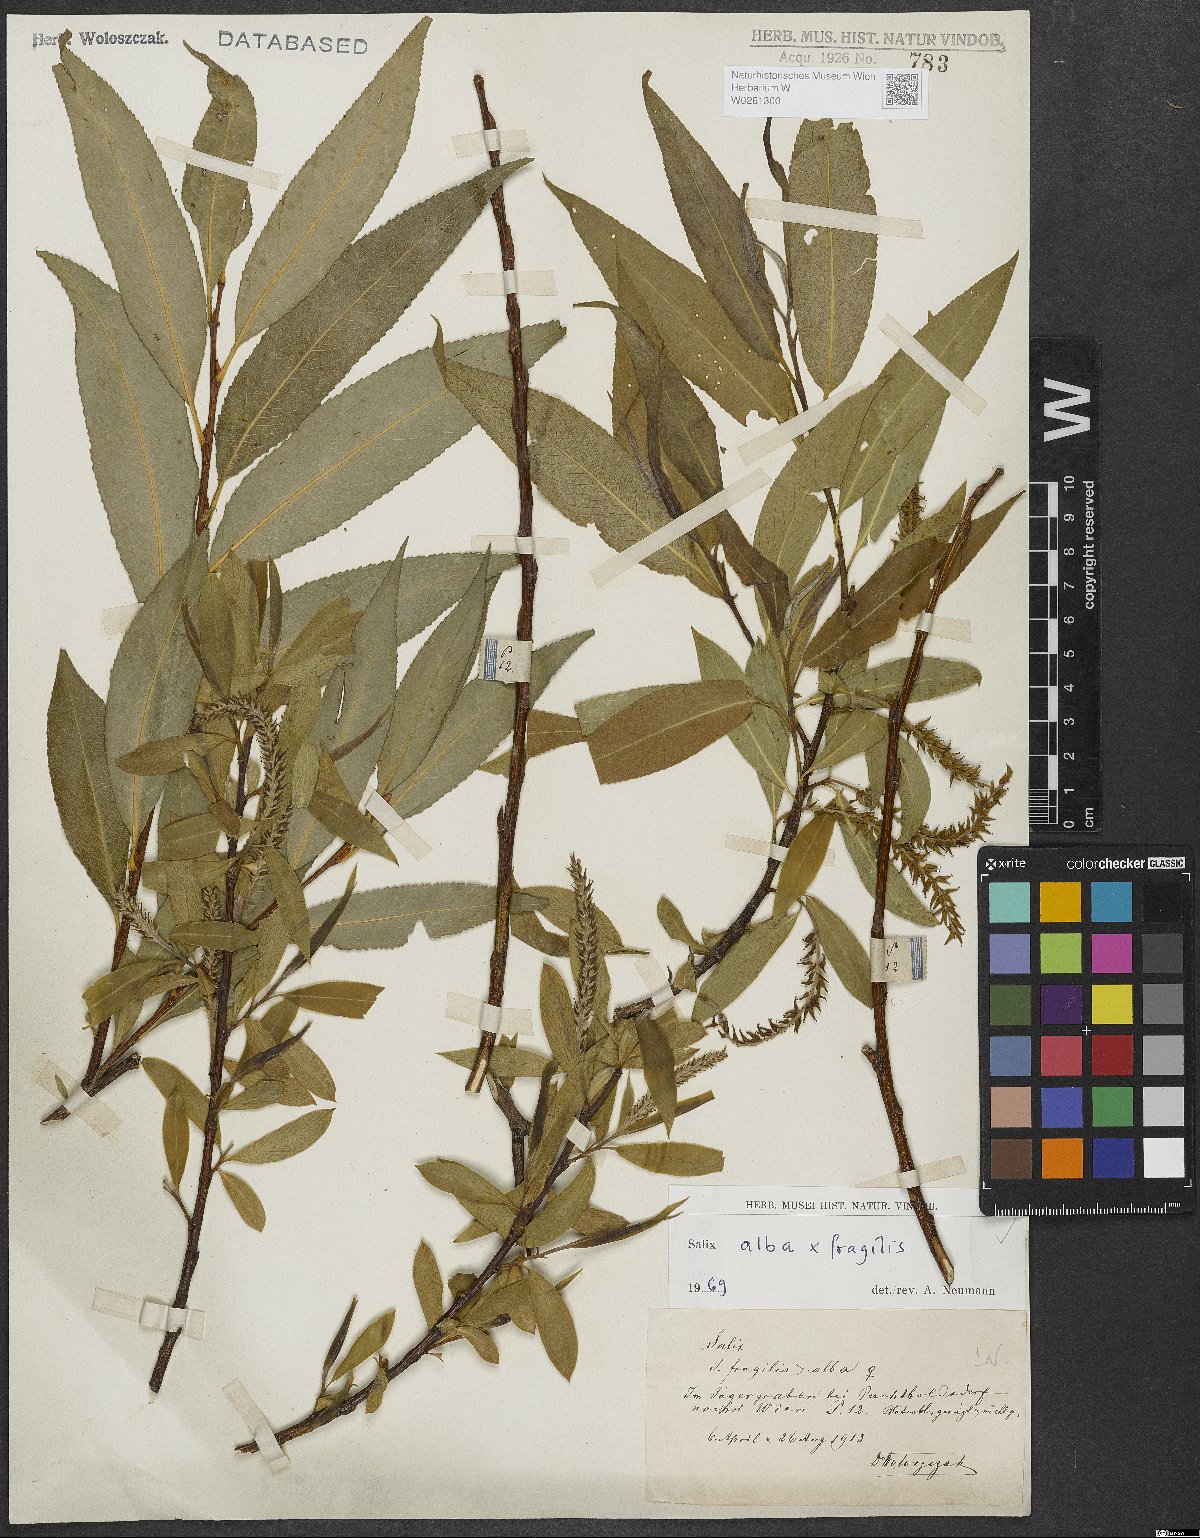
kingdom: Plantae
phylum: Tracheophyta
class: Magnoliopsida
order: Malpighiales
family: Salicaceae
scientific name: Salicaceae
